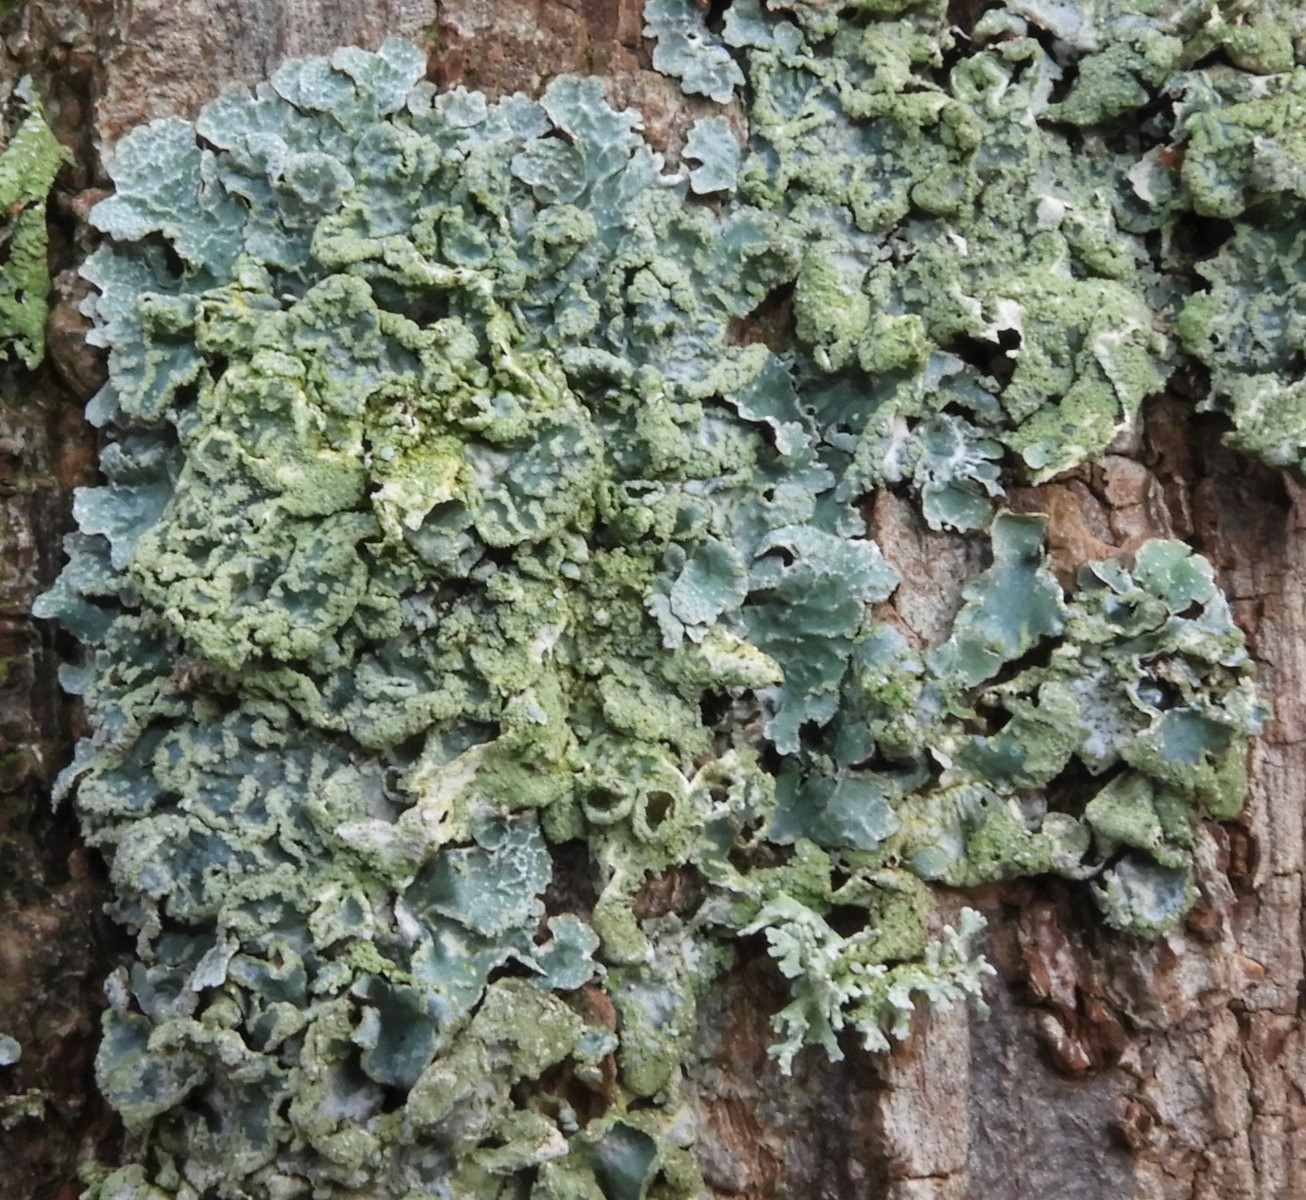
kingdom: Fungi
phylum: Ascomycota
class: Lecanoromycetes
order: Lecanorales
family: Parmeliaceae
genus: Parmelia
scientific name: Parmelia sulcata
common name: rynket skållav
